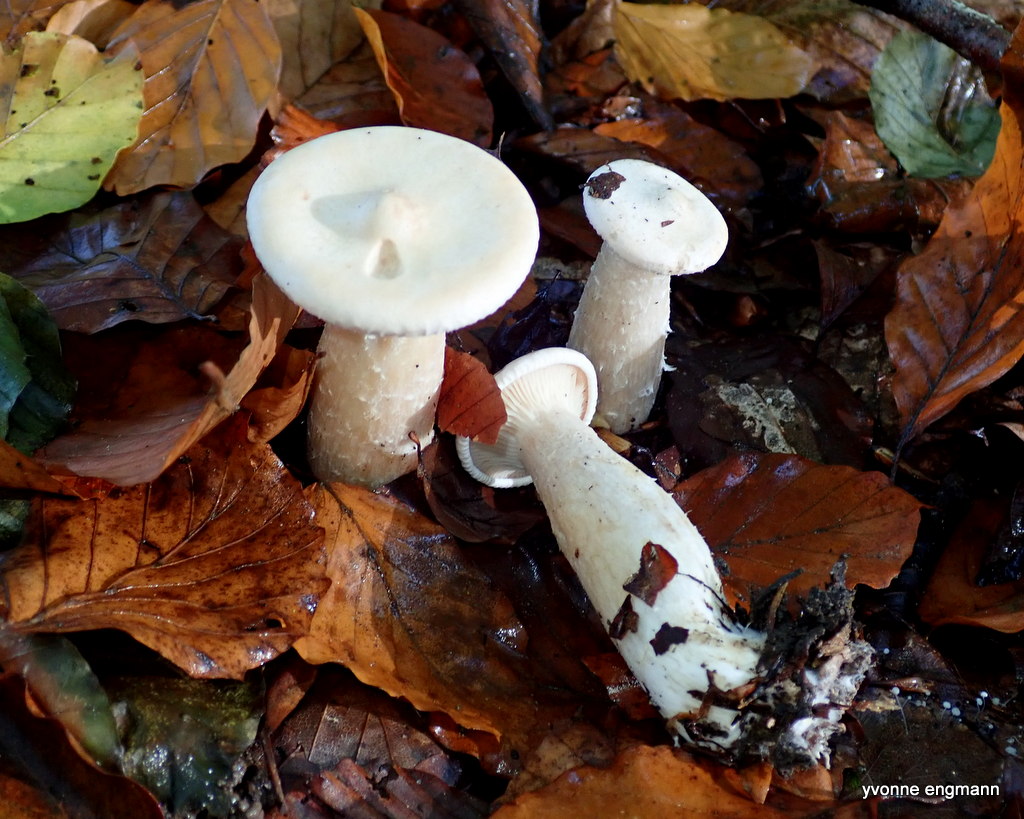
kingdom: Fungi
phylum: Basidiomycota
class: Agaricomycetes
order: Agaricales
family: Tricholomataceae
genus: Infundibulicybe
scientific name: Infundibulicybe geotropa
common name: stor tragthat
